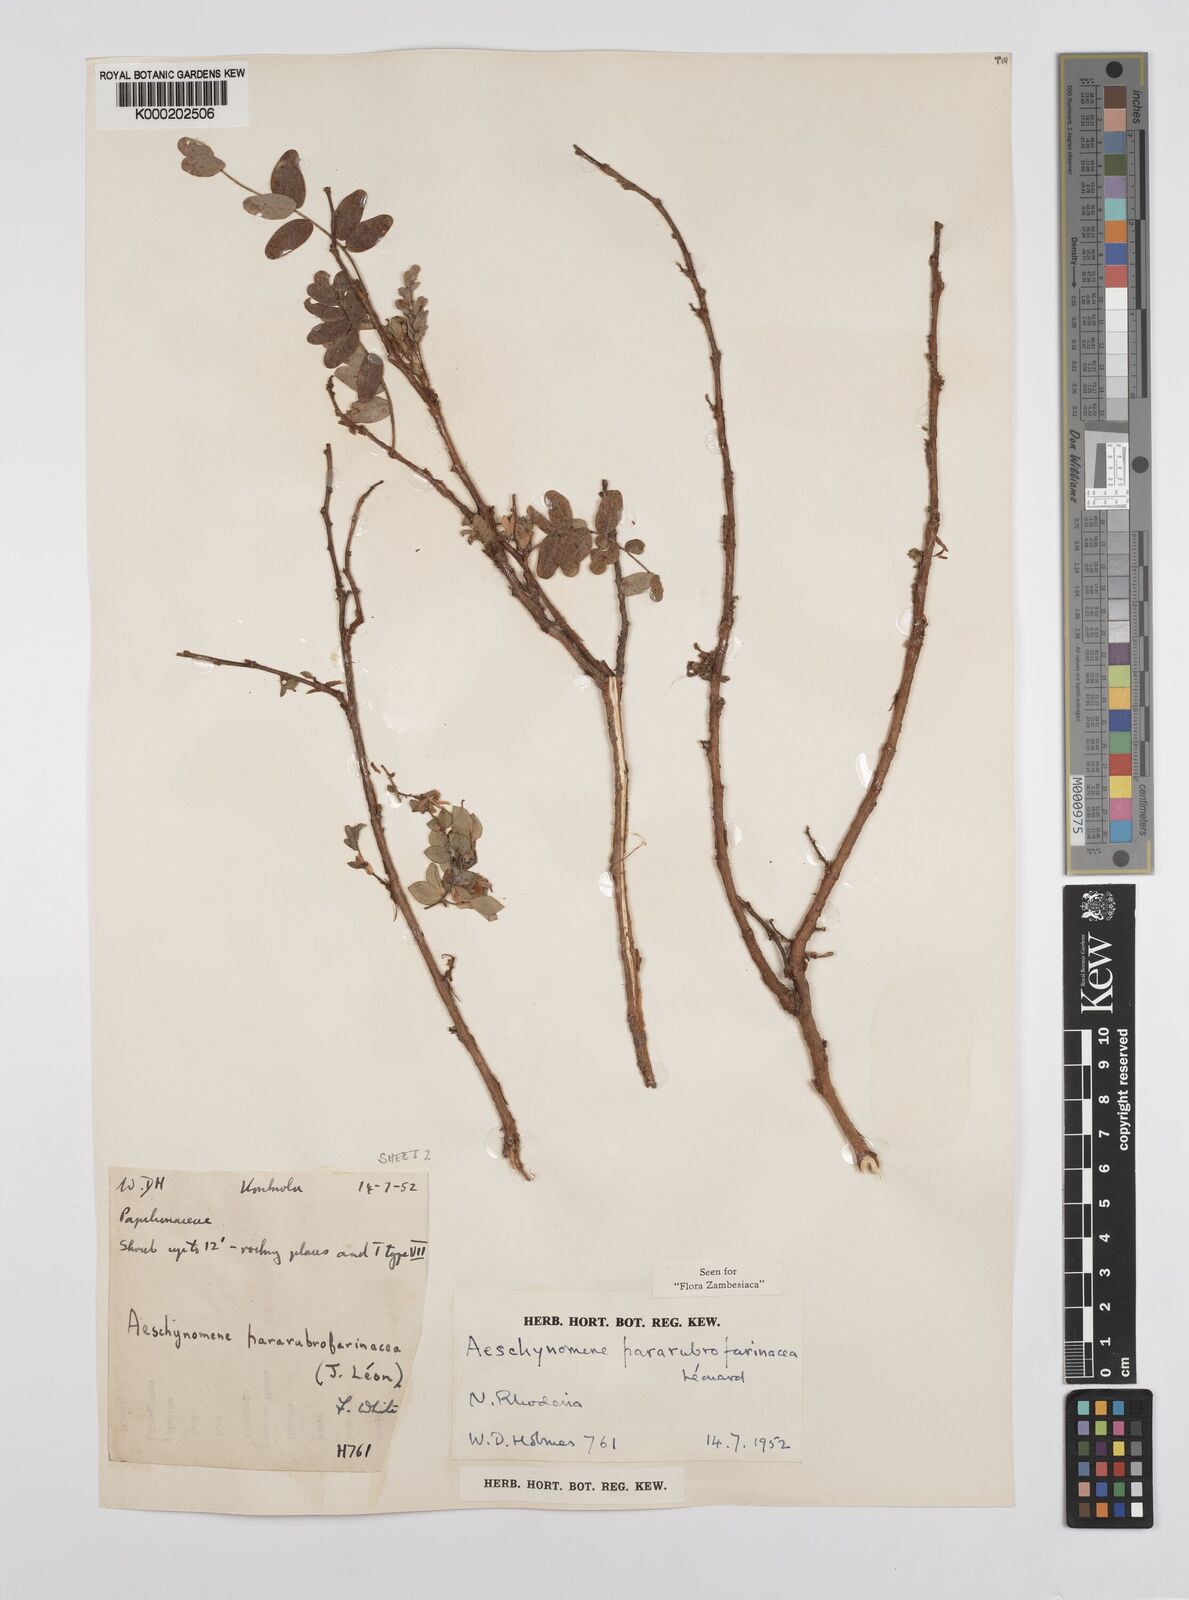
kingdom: Plantae
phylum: Tracheophyta
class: Magnoliopsida
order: Fabales
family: Fabaceae
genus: Aeschynomene
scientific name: Aeschynomene pararubrofarinacea
